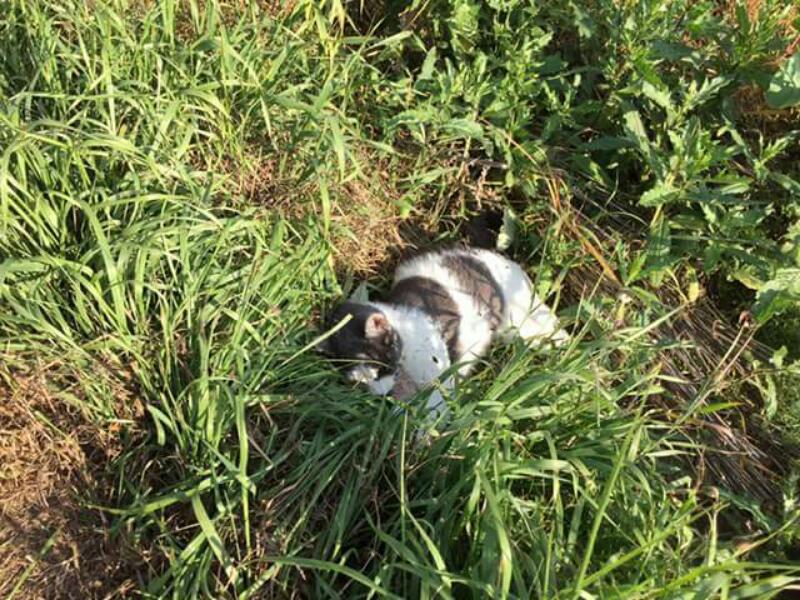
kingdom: Animalia
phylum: Chordata
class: Mammalia
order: Carnivora
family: Felidae
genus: Felis
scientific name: Felis catus
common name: Domestic cat
